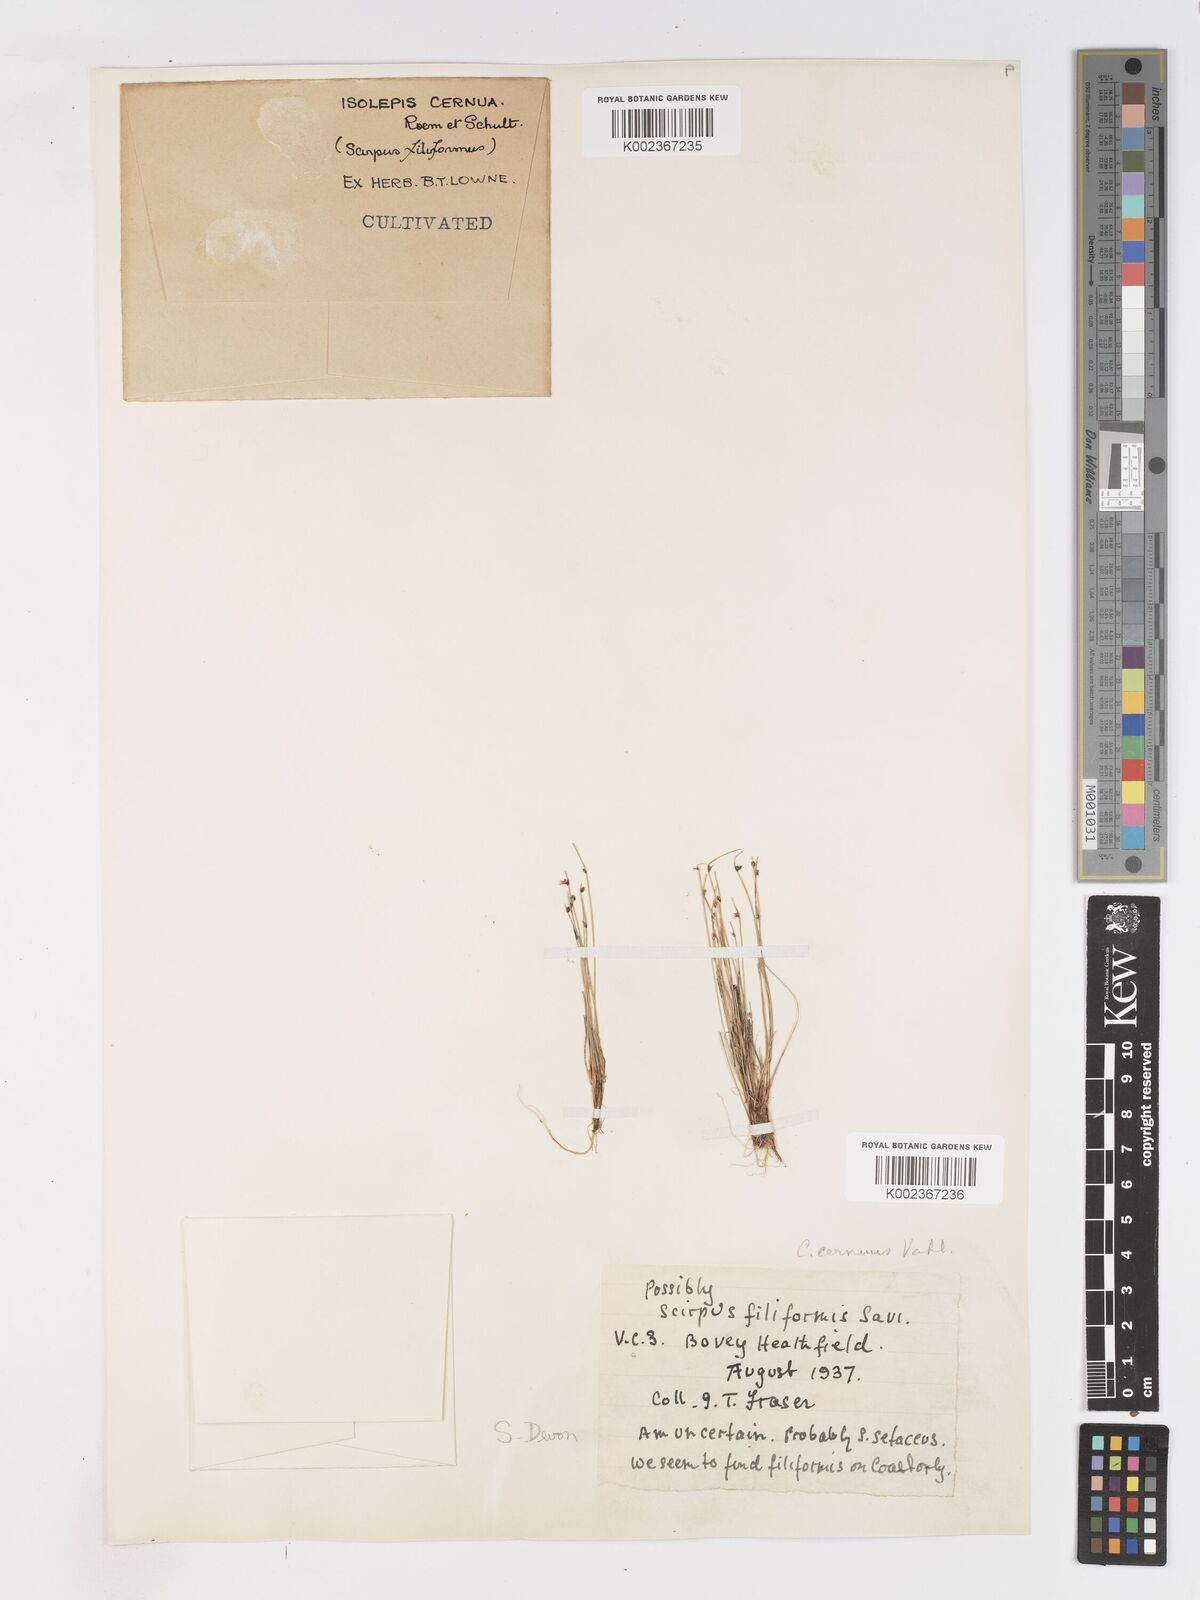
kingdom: Plantae
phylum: Tracheophyta
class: Liliopsida
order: Poales
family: Cyperaceae
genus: Isolepis
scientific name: Isolepis cernua
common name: Slender club-rush
